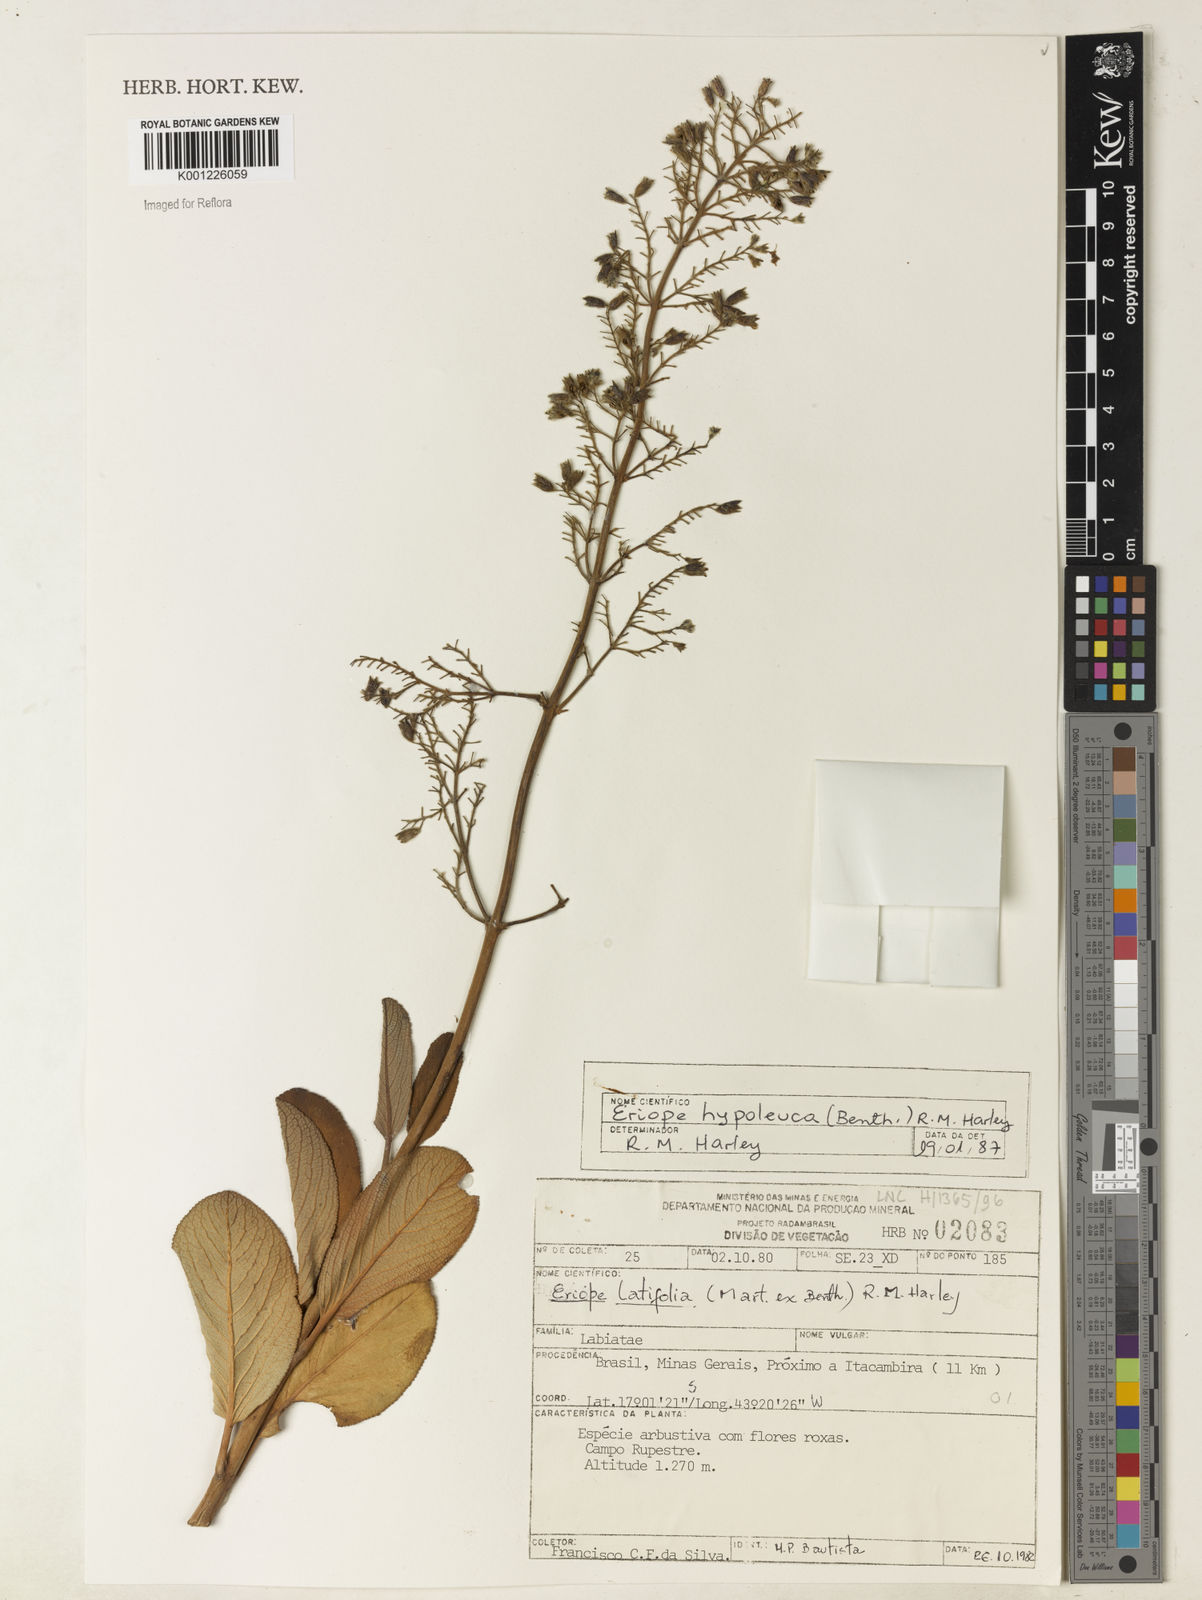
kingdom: Plantae
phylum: Tracheophyta
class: Magnoliopsida
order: Lamiales
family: Lamiaceae
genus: Eriope
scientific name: Eriope hypoleuca
